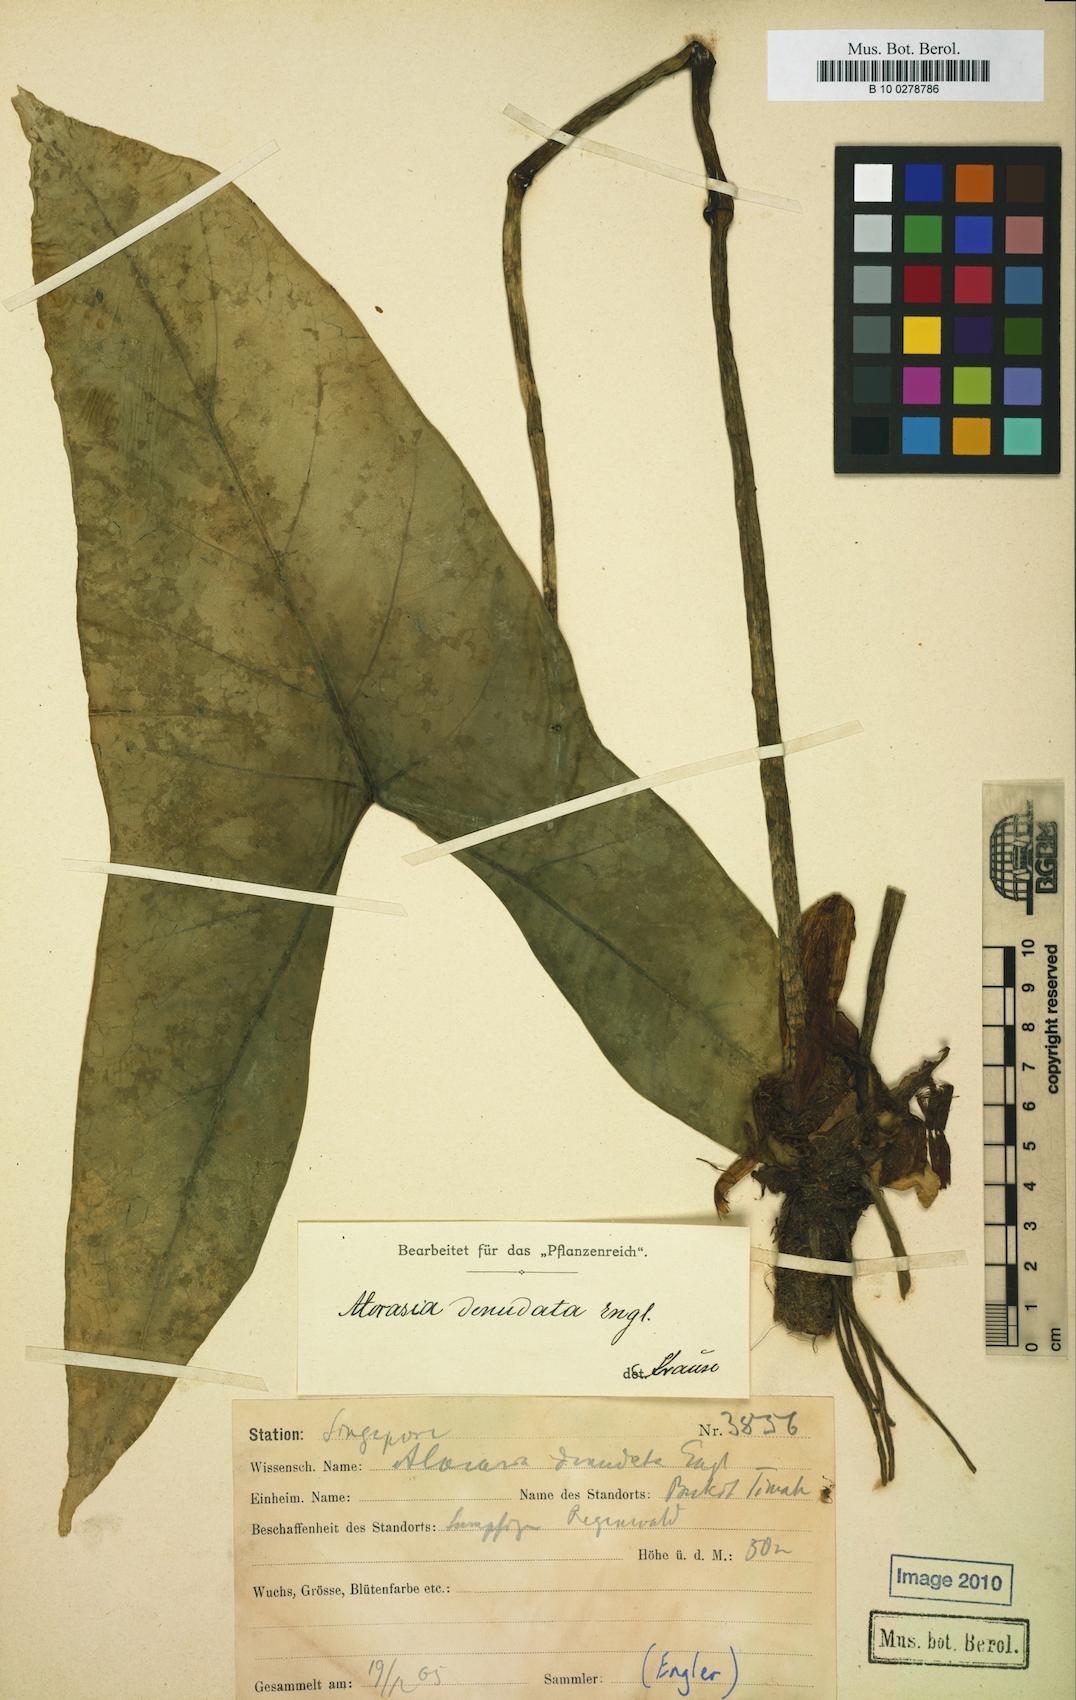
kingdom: Plantae
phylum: Tracheophyta
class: Liliopsida
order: Alismatales
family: Araceae
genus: Alocasia
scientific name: Alocasia longiloba
